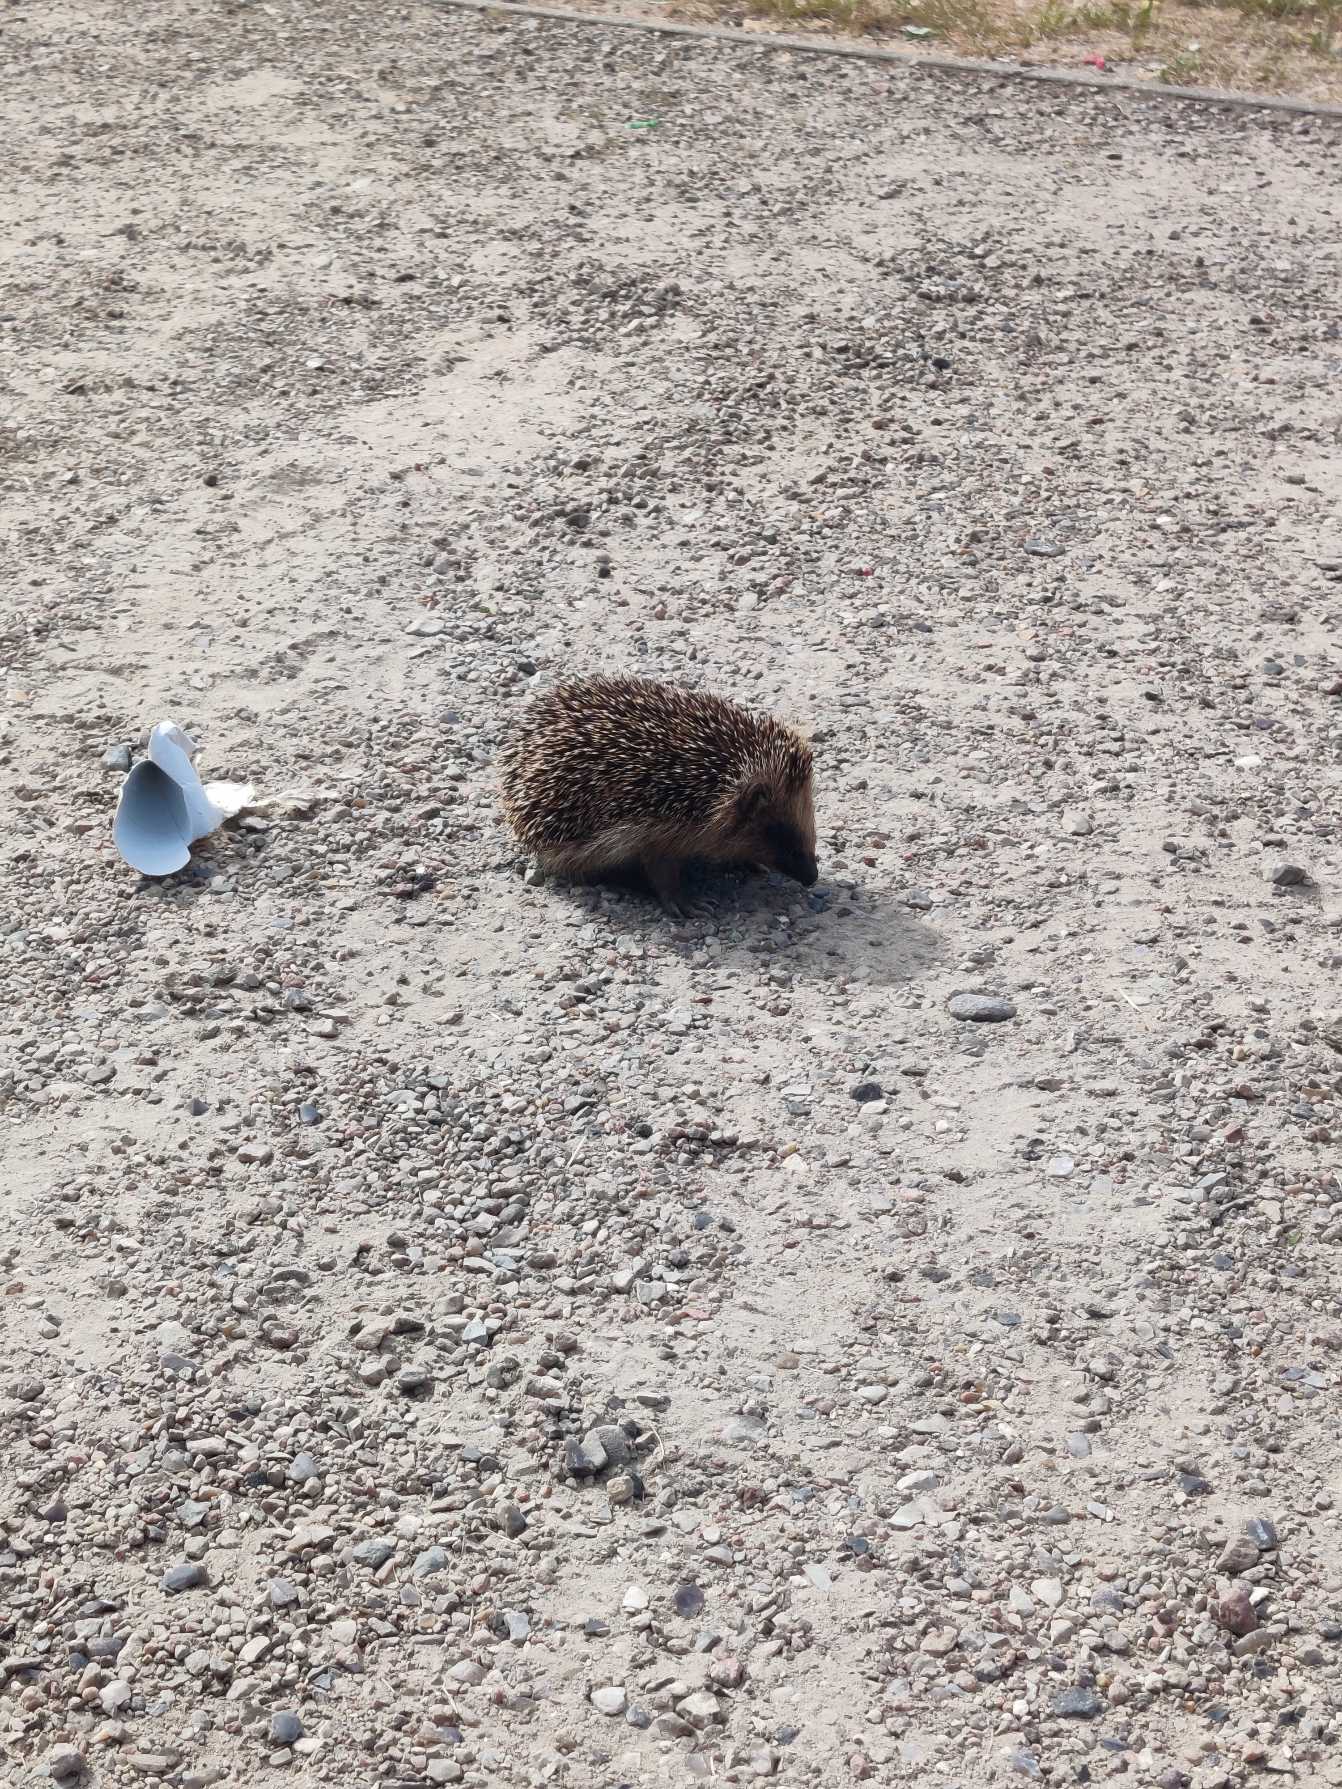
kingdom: Animalia
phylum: Chordata
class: Mammalia
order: Erinaceomorpha
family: Erinaceidae
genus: Erinaceus
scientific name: Erinaceus europaeus
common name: Pindsvin
